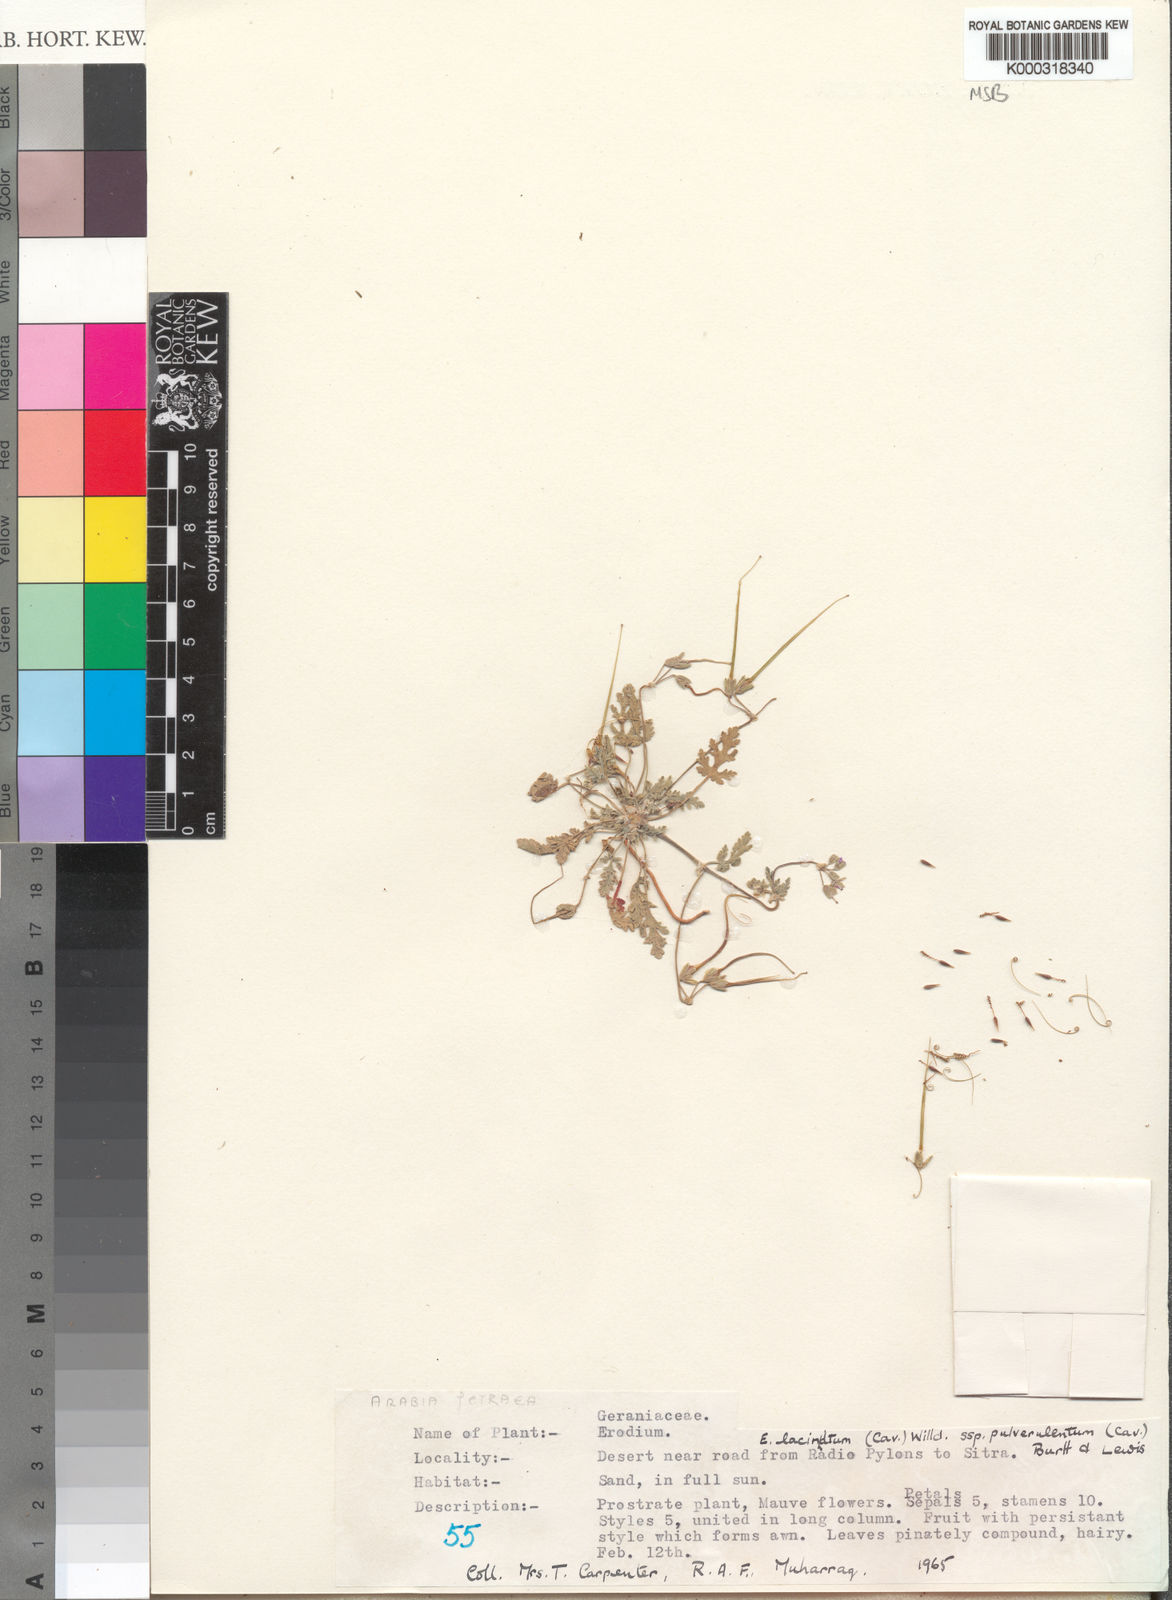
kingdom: Plantae
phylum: Tracheophyta
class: Magnoliopsida
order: Geraniales
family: Geraniaceae
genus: Erodium
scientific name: Erodium laciniatum
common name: Cutleaf stork's bill
